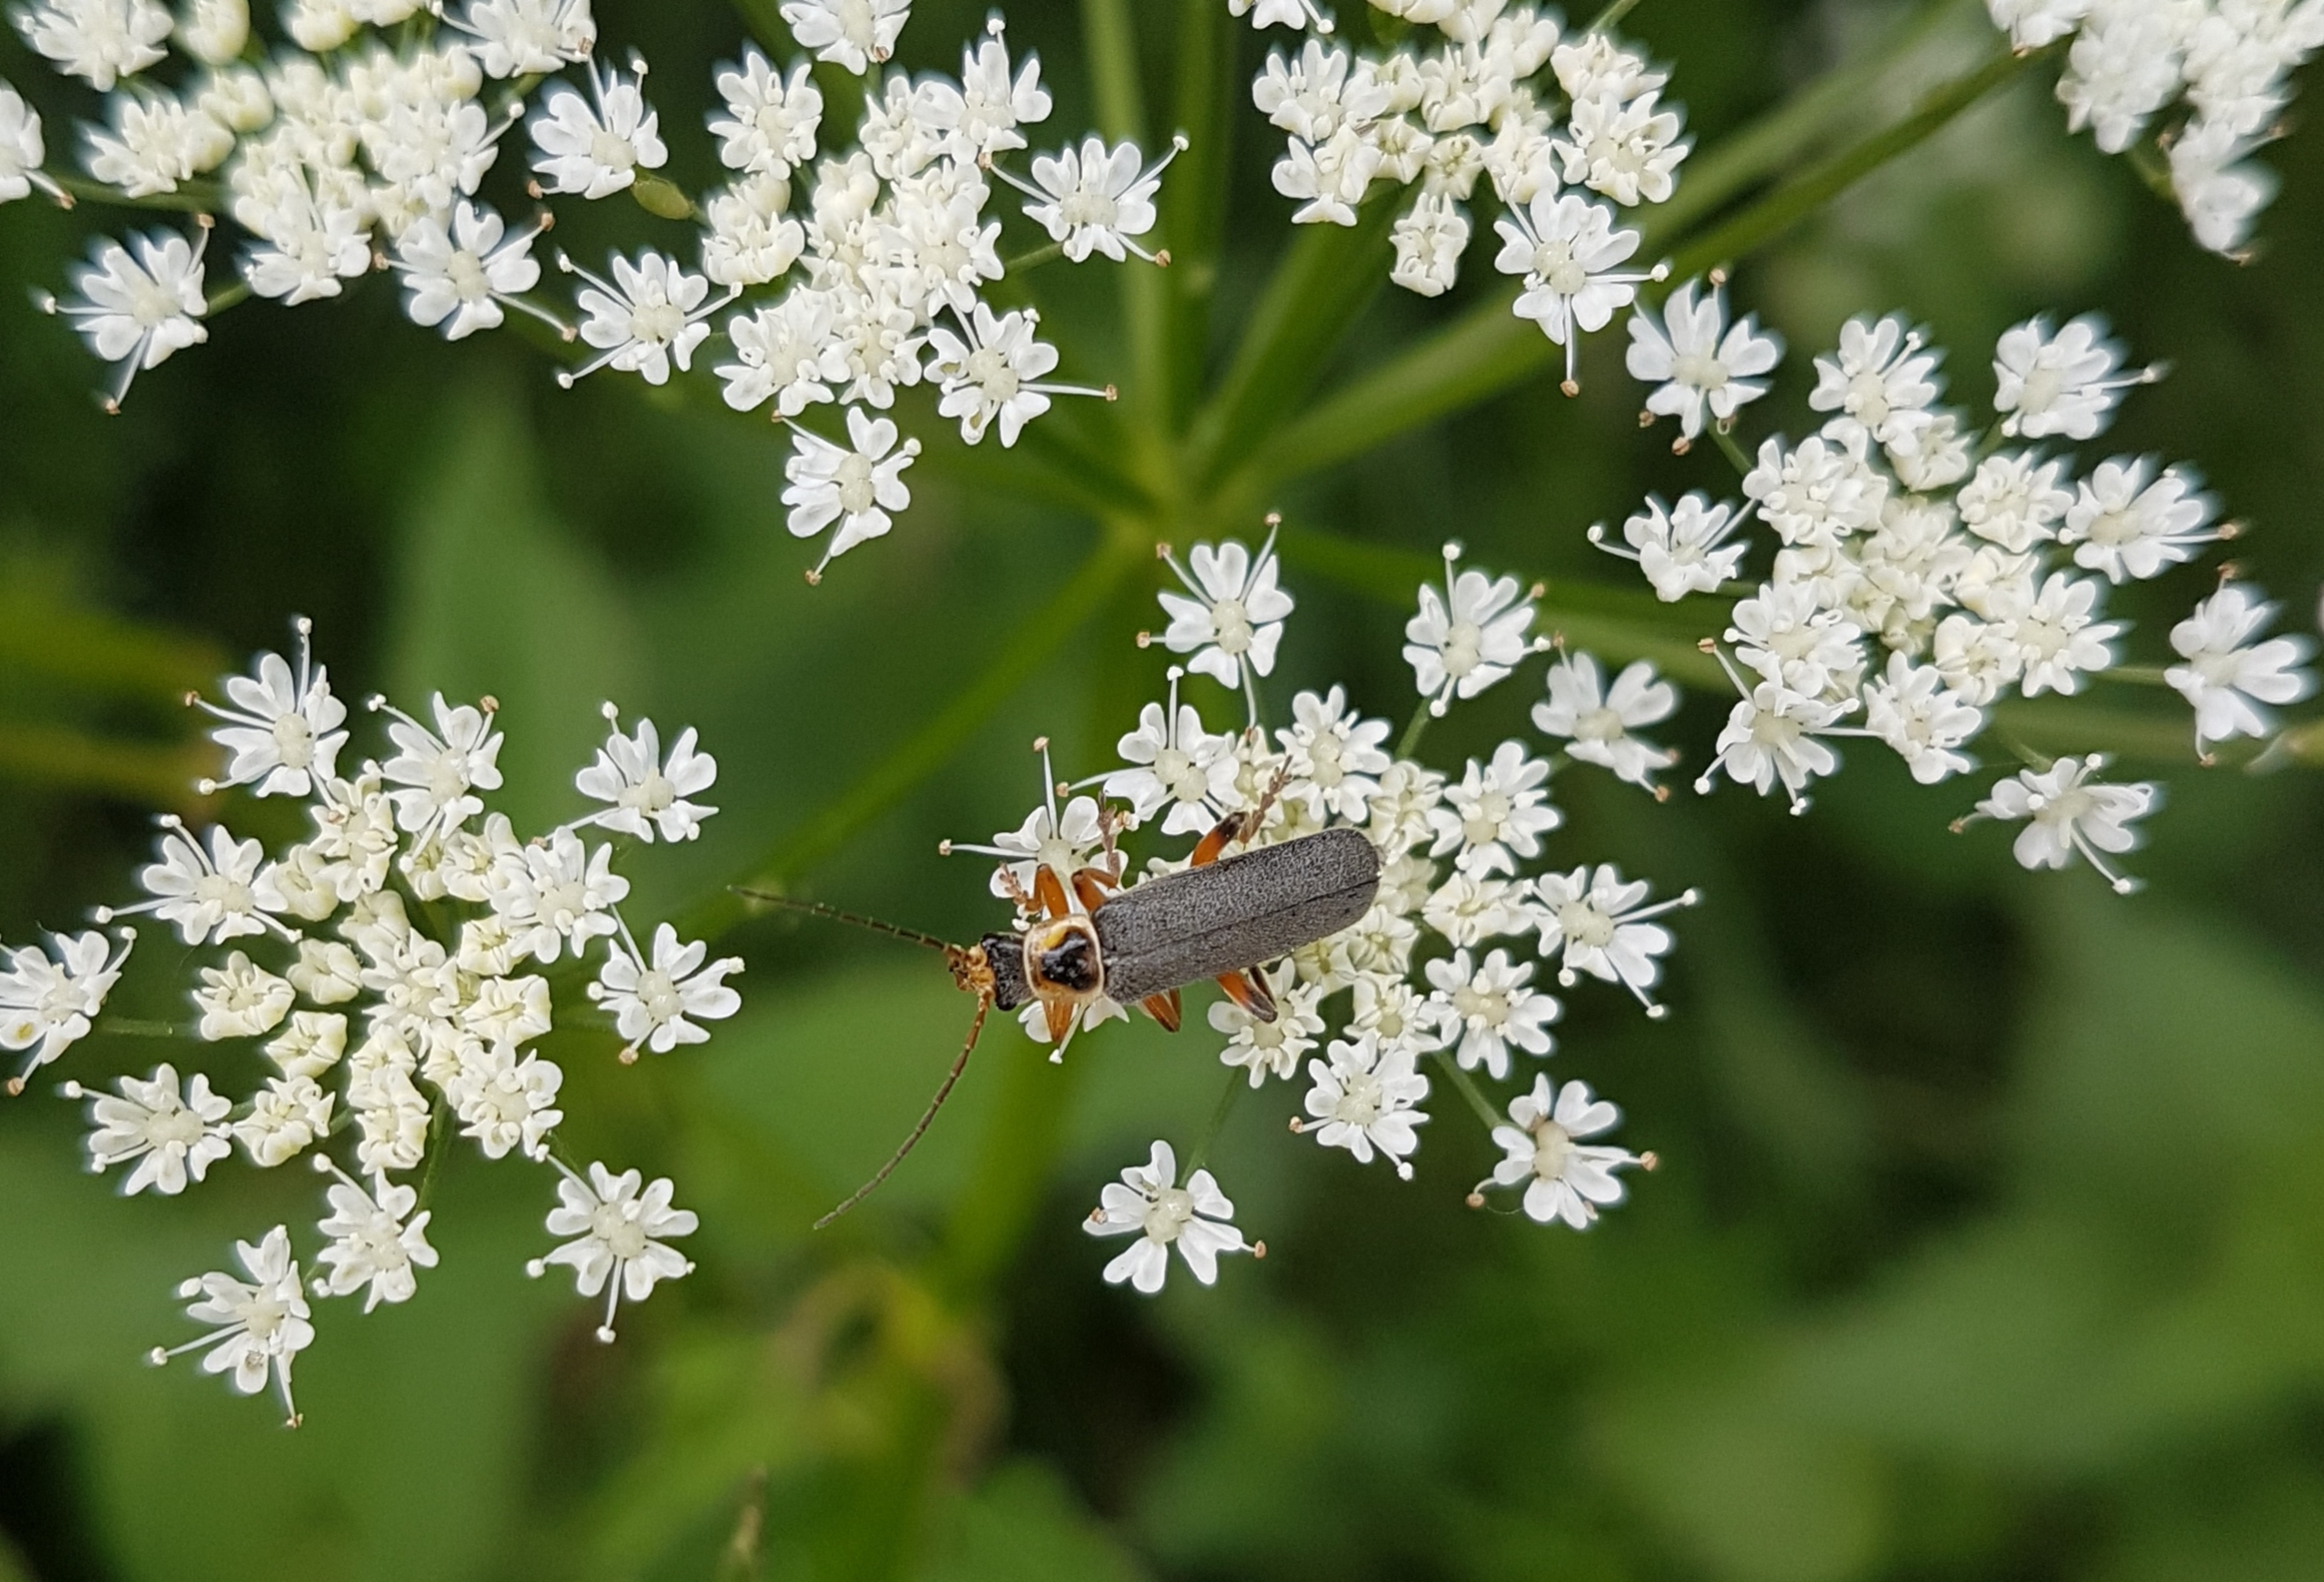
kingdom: Animalia
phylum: Arthropoda
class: Insecta
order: Coleoptera
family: Cantharidae
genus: Cantharis
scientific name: Cantharis nigricans
